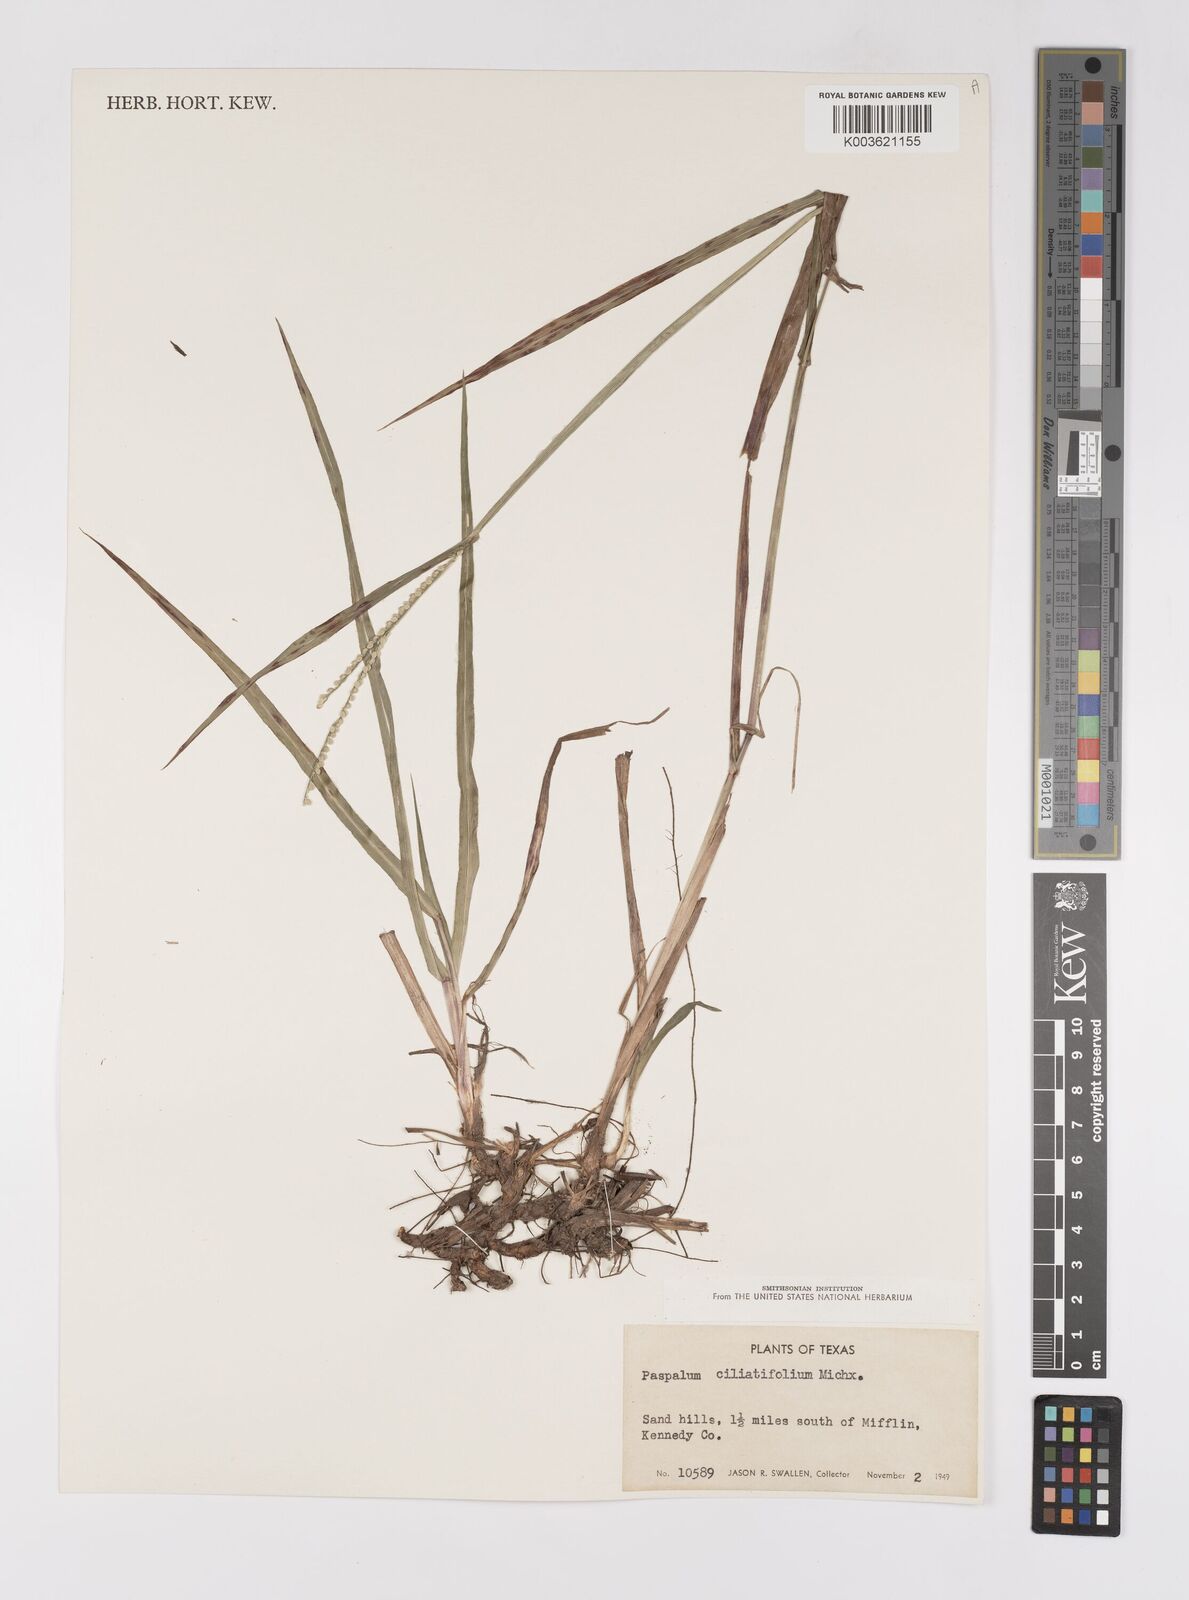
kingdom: Plantae
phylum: Tracheophyta
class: Liliopsida
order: Poales
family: Poaceae
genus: Paspalum
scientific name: Paspalum setaceum
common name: Slender paspalum
